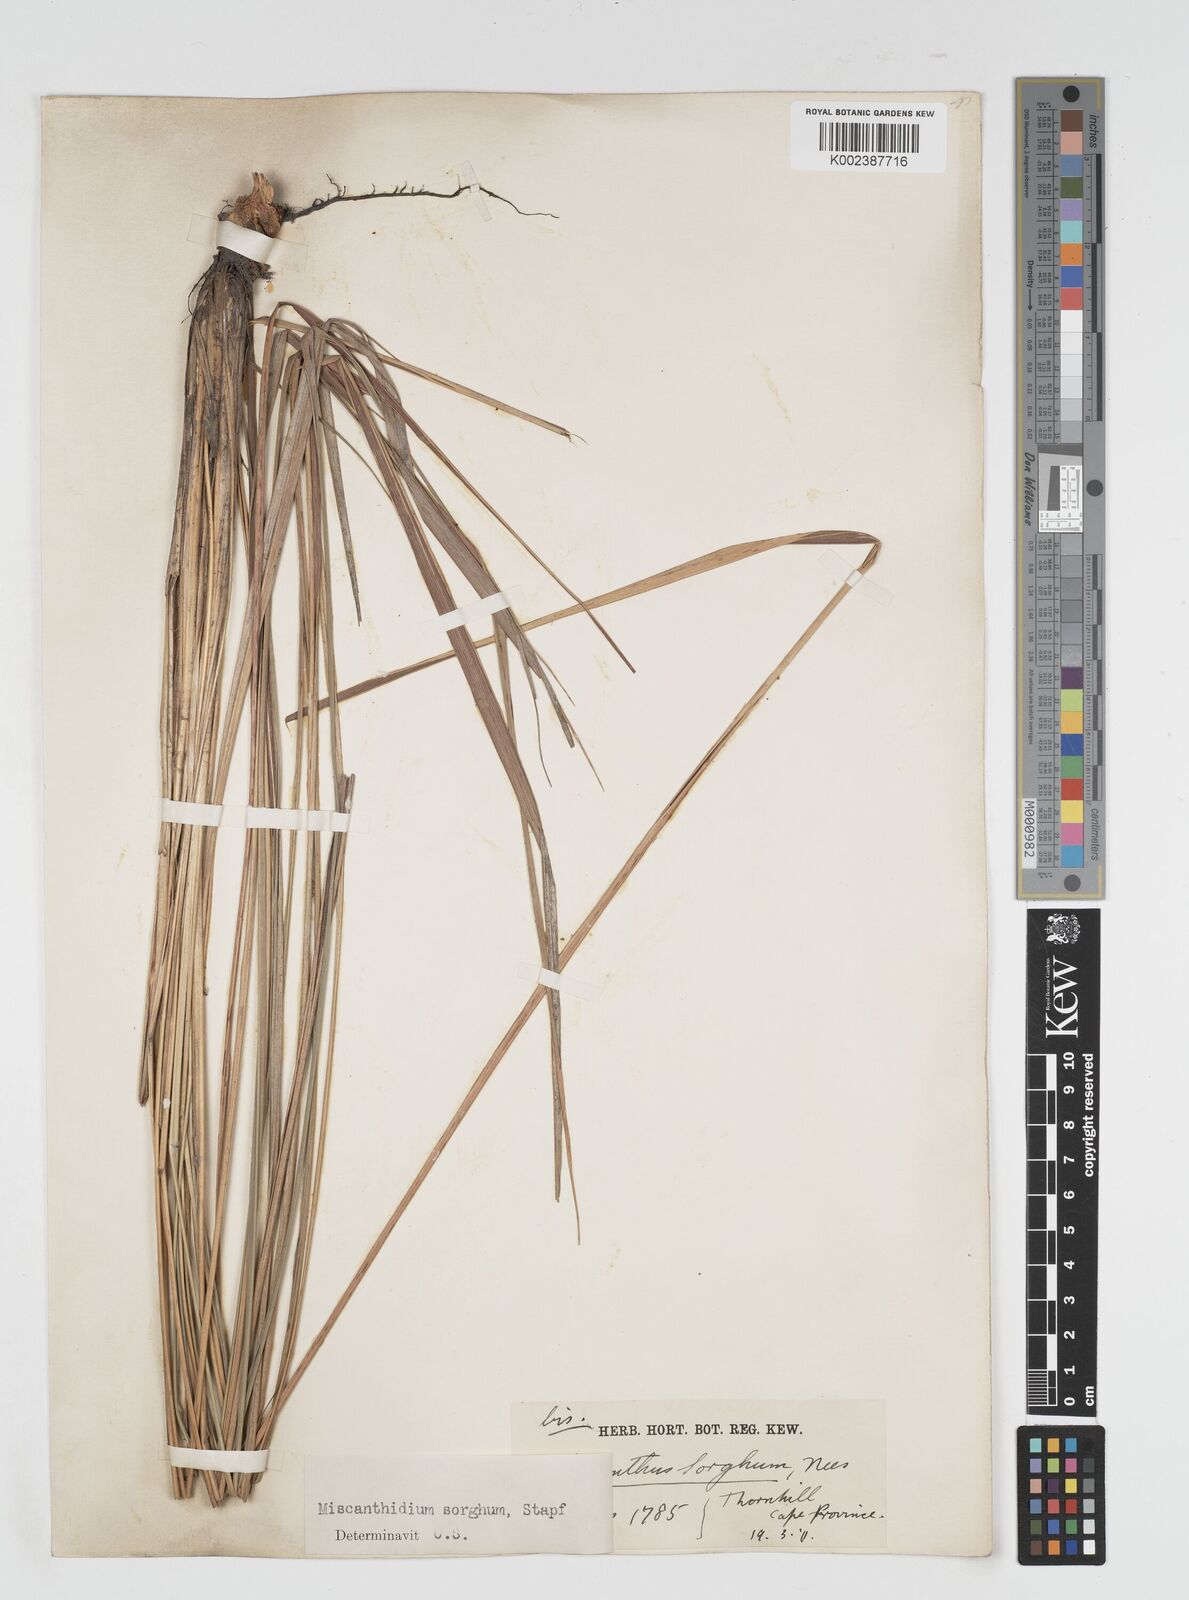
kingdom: Plantae
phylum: Tracheophyta
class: Liliopsida
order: Poales
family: Poaceae
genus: Miscanthus
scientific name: Miscanthus ecklonii
